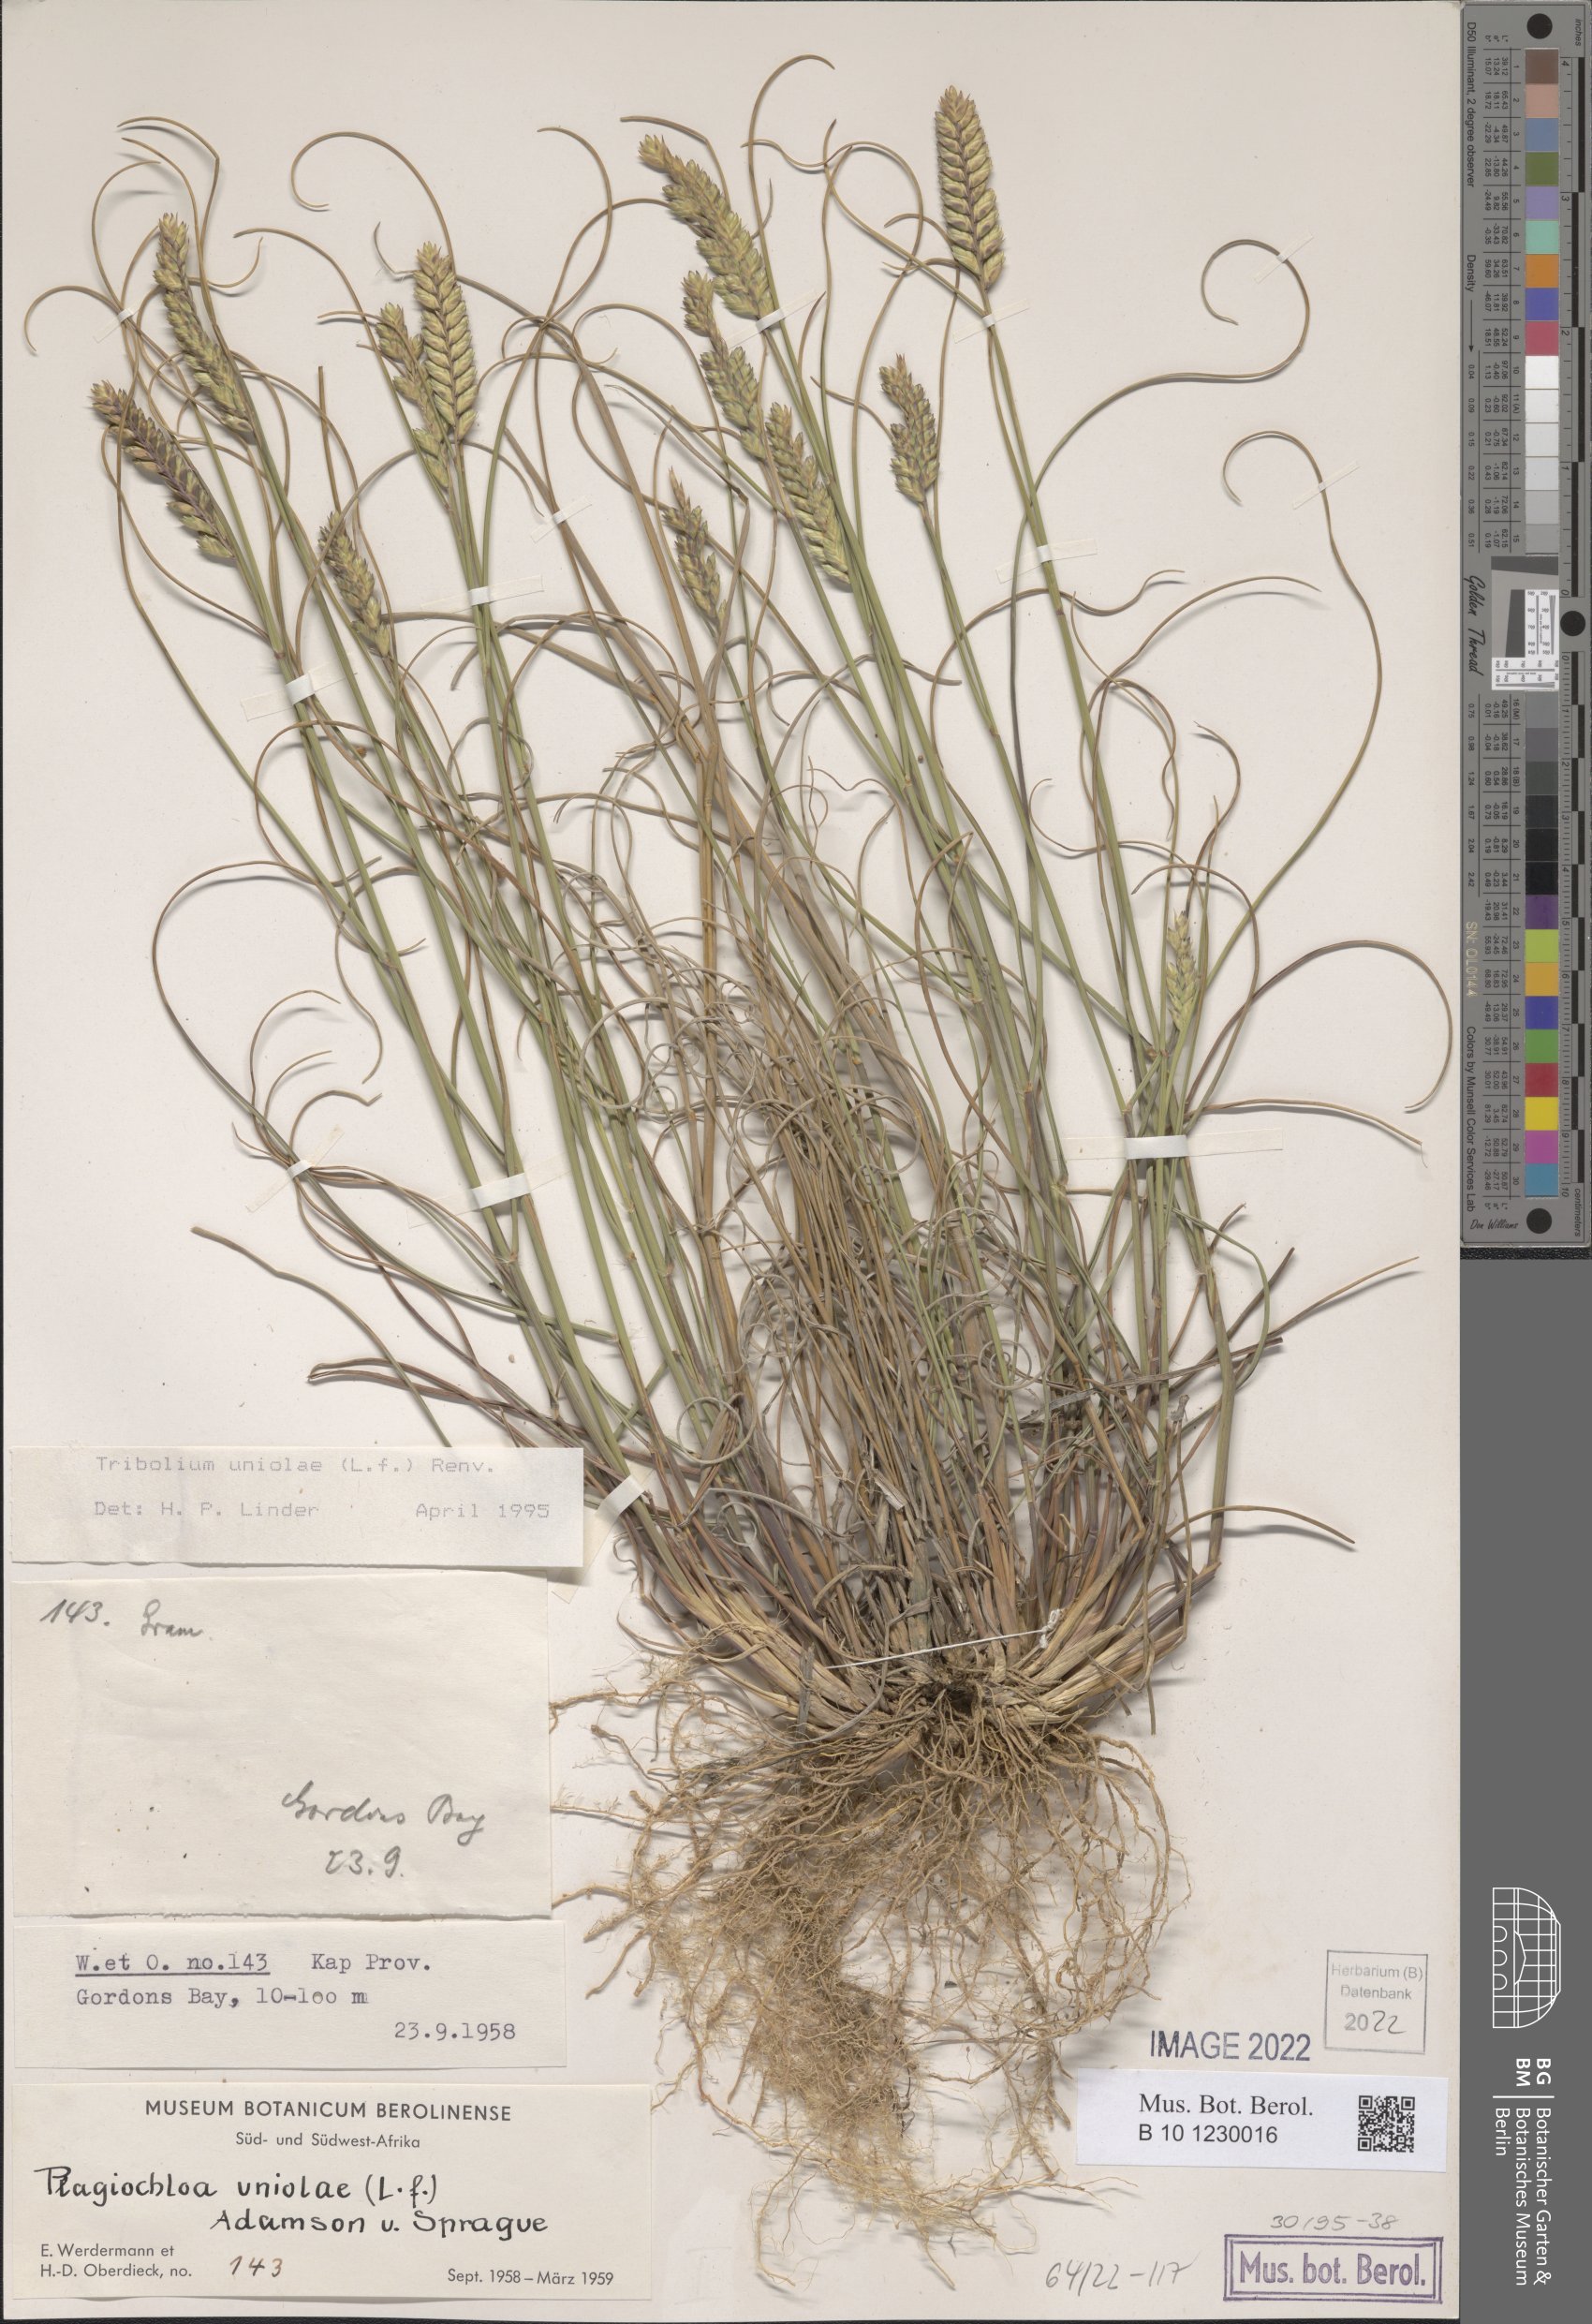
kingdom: Plantae
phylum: Tracheophyta
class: Liliopsida
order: Poales
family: Poaceae
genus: Tribolium
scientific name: Tribolium uniolae
